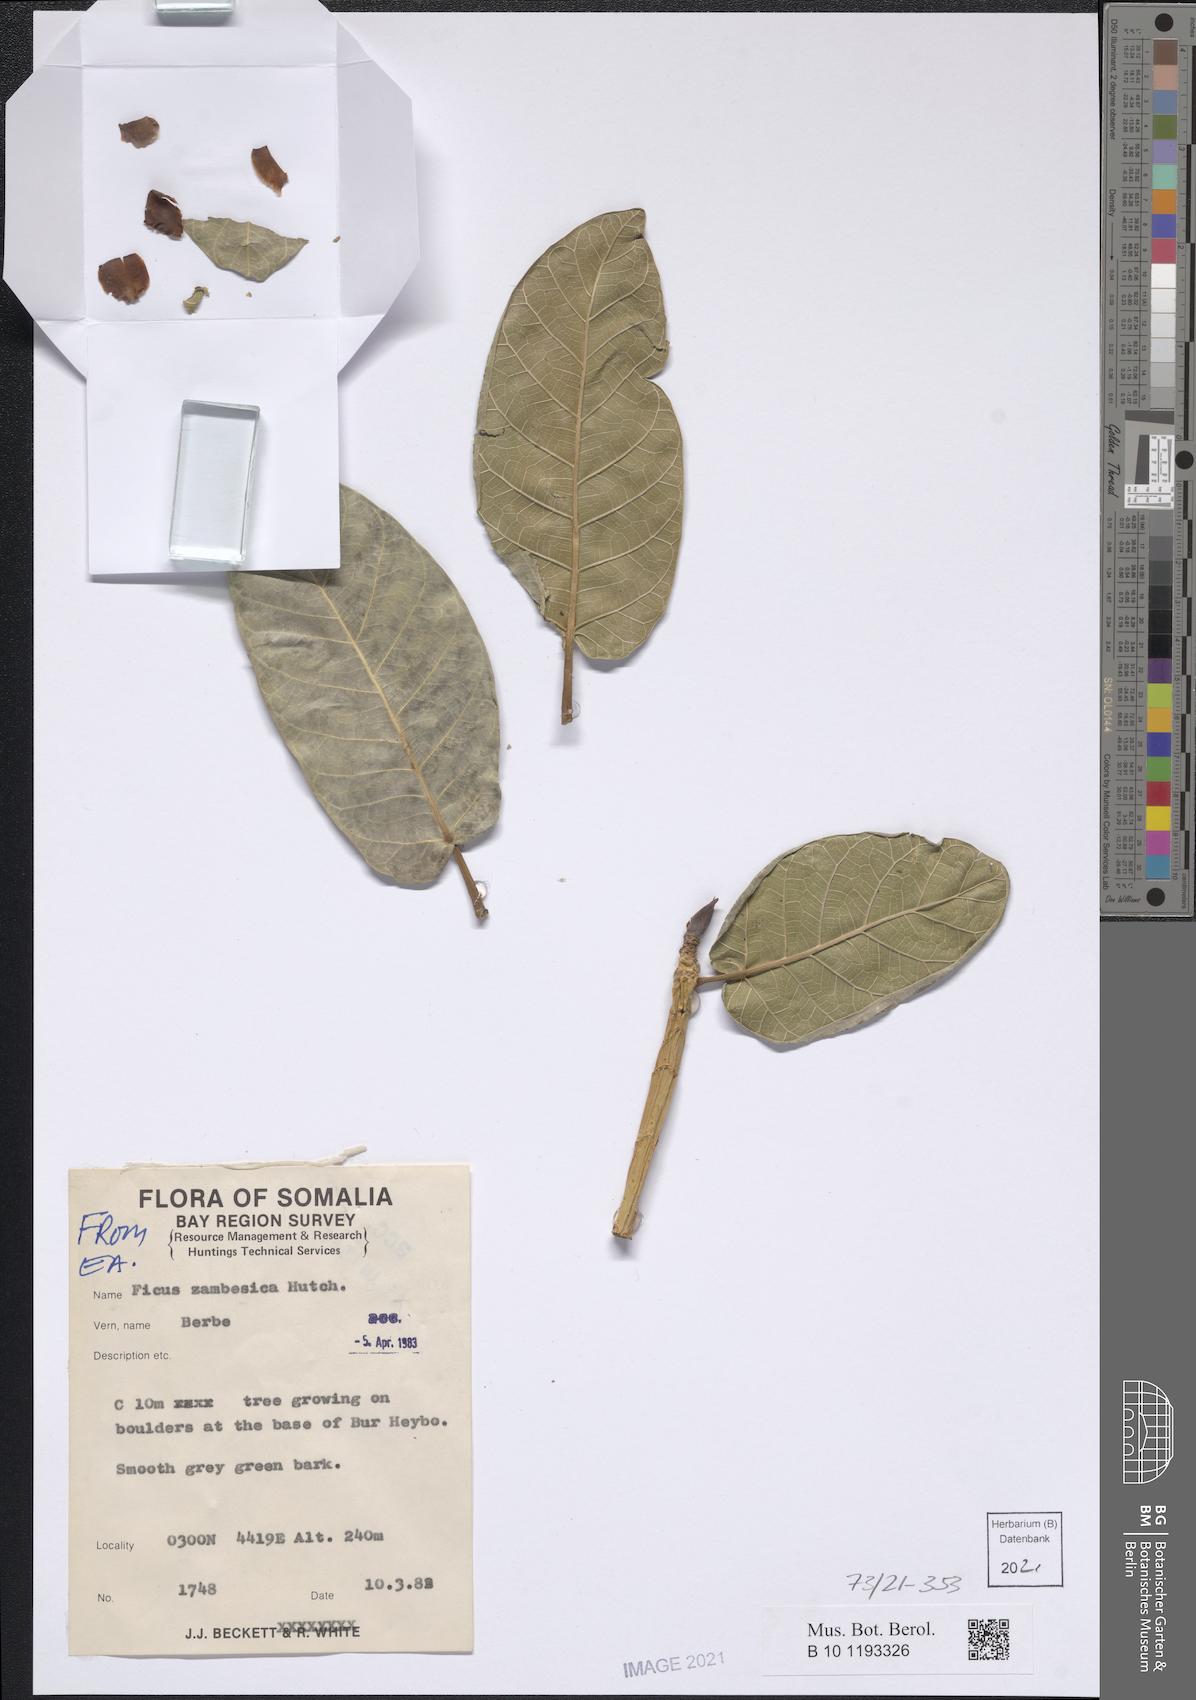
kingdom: Plantae
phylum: Tracheophyta
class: Magnoliopsida
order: Rosales
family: Moraceae
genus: Ficus
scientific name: Ficus bussei
